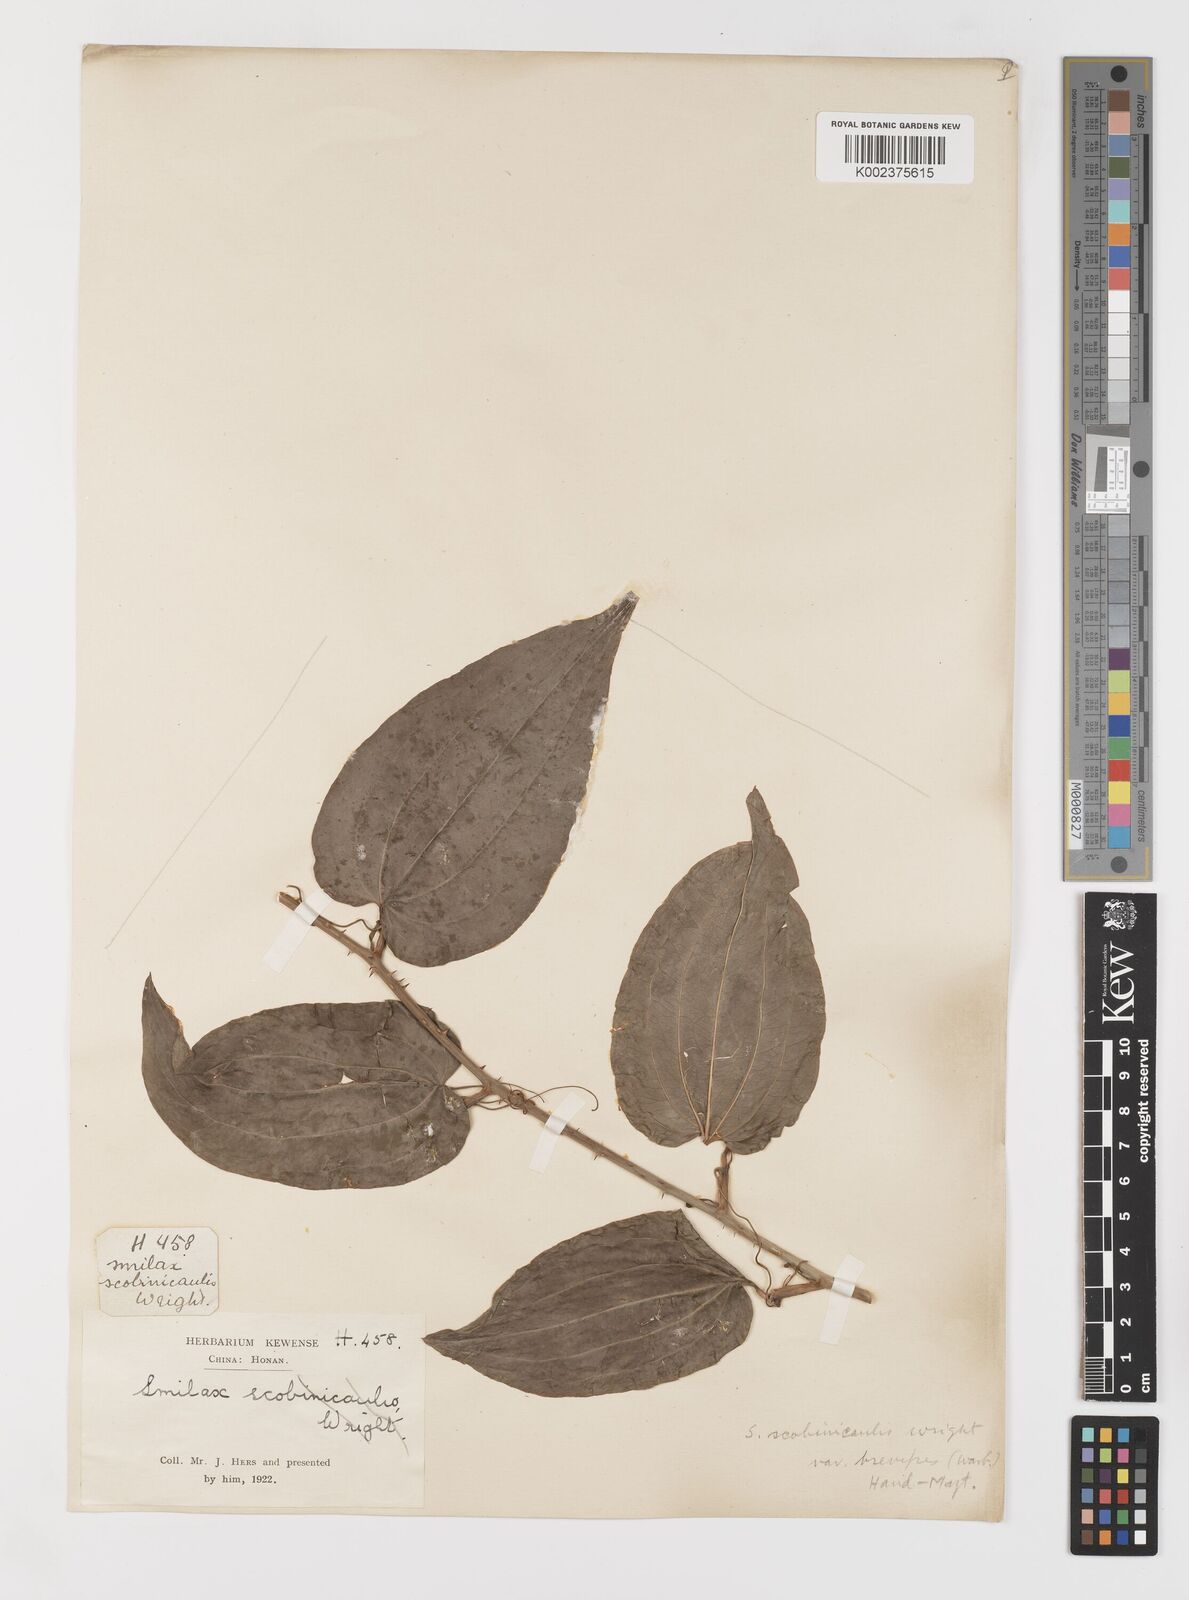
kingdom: Plantae
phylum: Tracheophyta
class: Liliopsida
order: Liliales
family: Smilacaceae
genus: Smilax
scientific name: Smilax scobinicaulis
